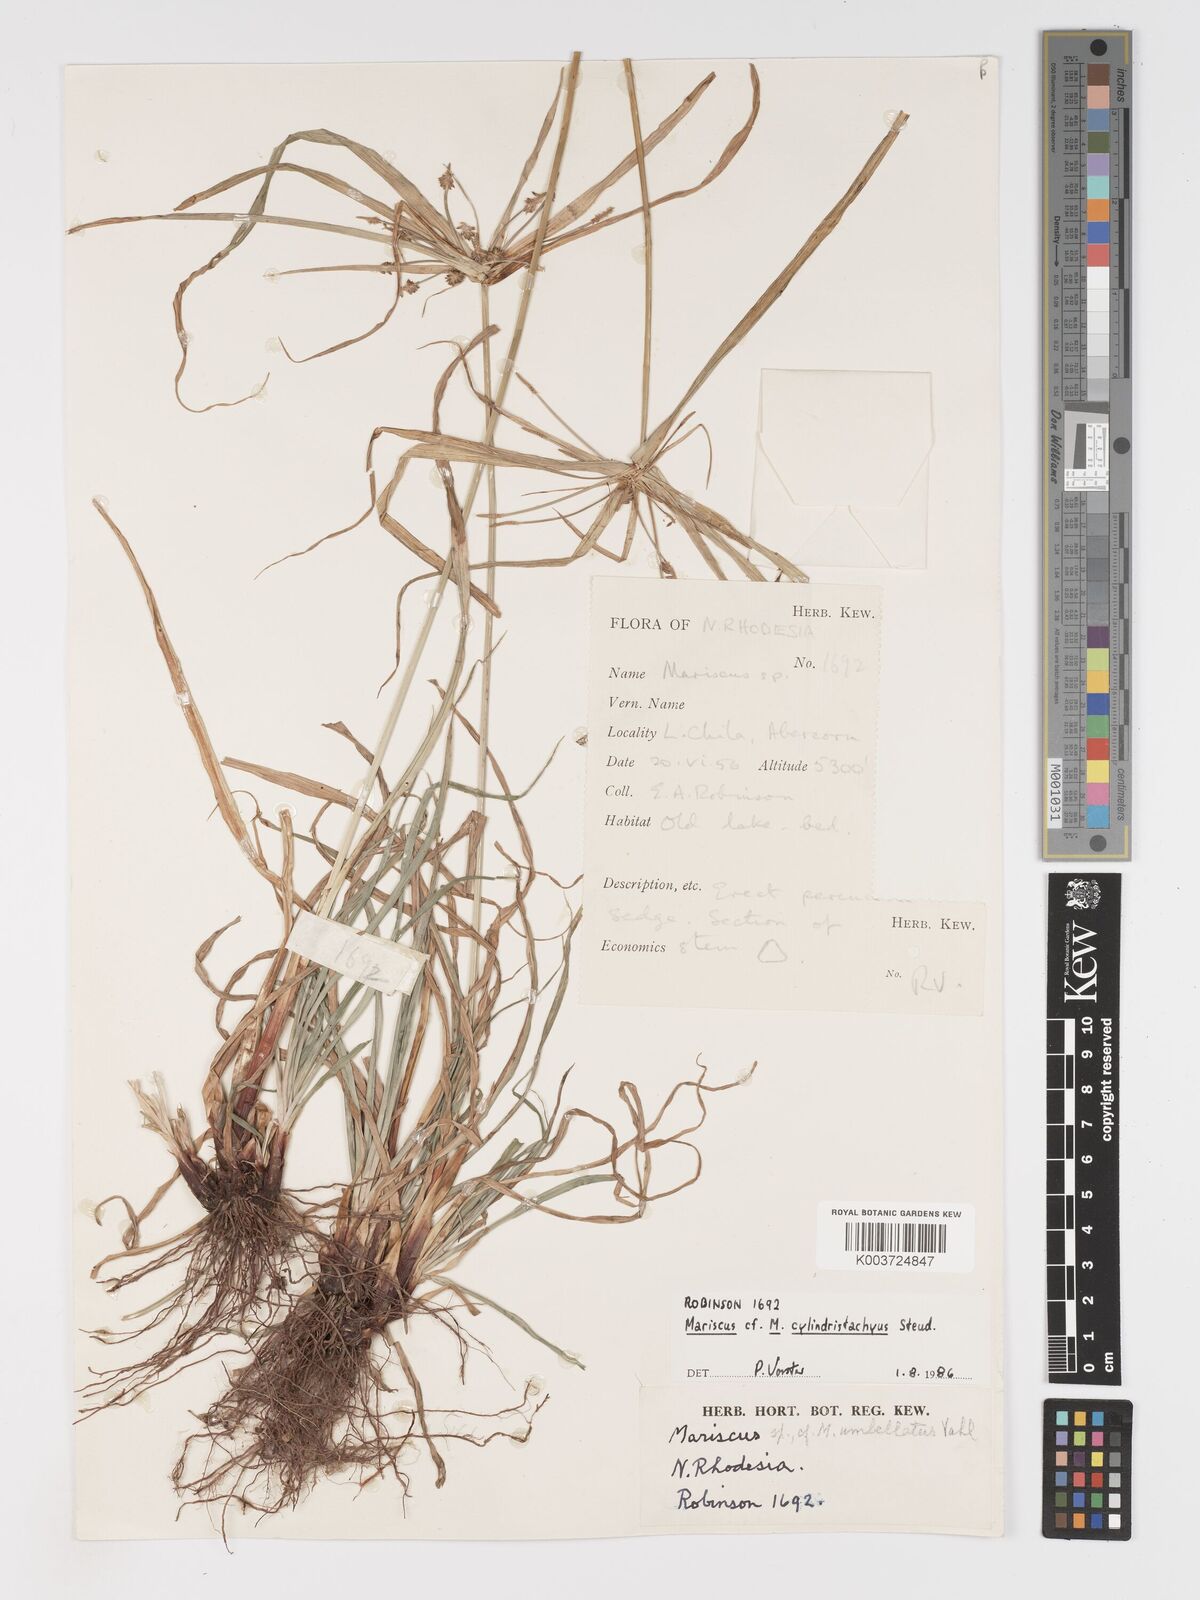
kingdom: Plantae
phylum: Tracheophyta
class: Liliopsida
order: Poales
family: Cyperaceae
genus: Cyperus
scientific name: Cyperus cyperoides
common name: Pacific island flat sedge
